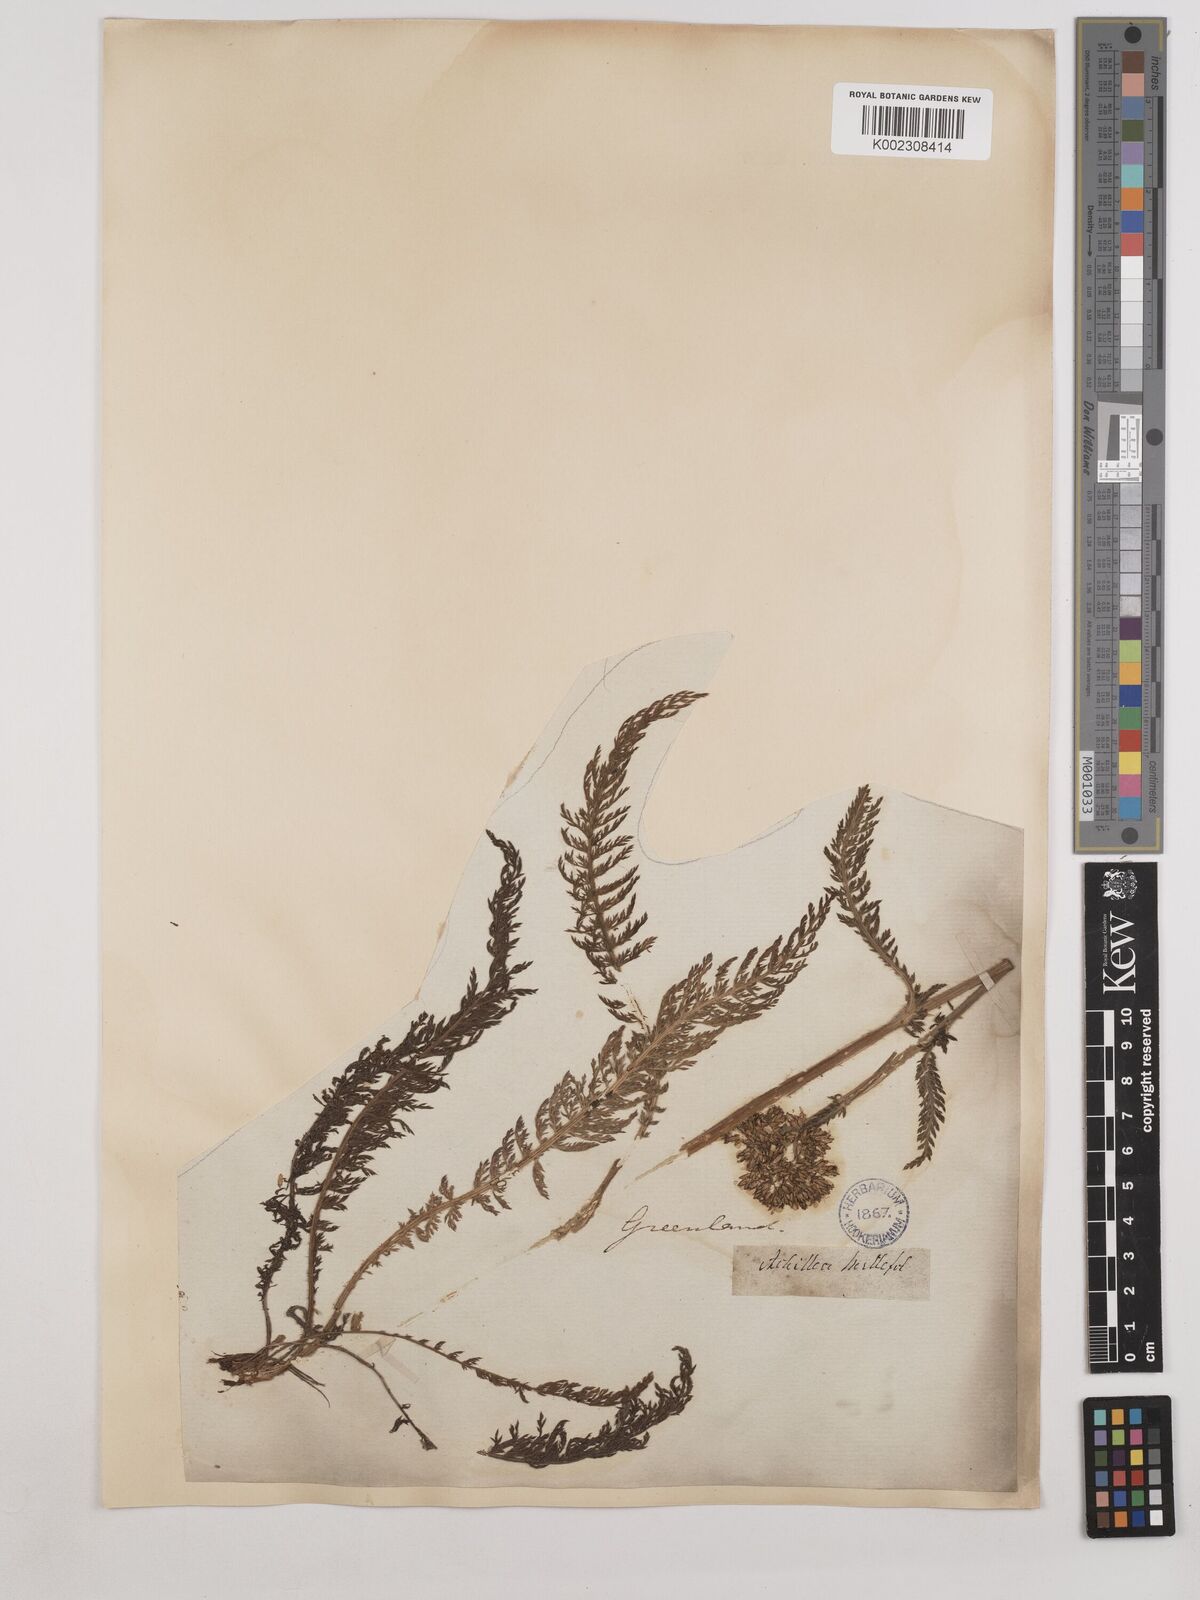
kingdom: Plantae
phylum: Tracheophyta
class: Magnoliopsida
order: Asterales
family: Asteraceae
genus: Achillea
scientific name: Achillea millefolium
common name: Yarrow
